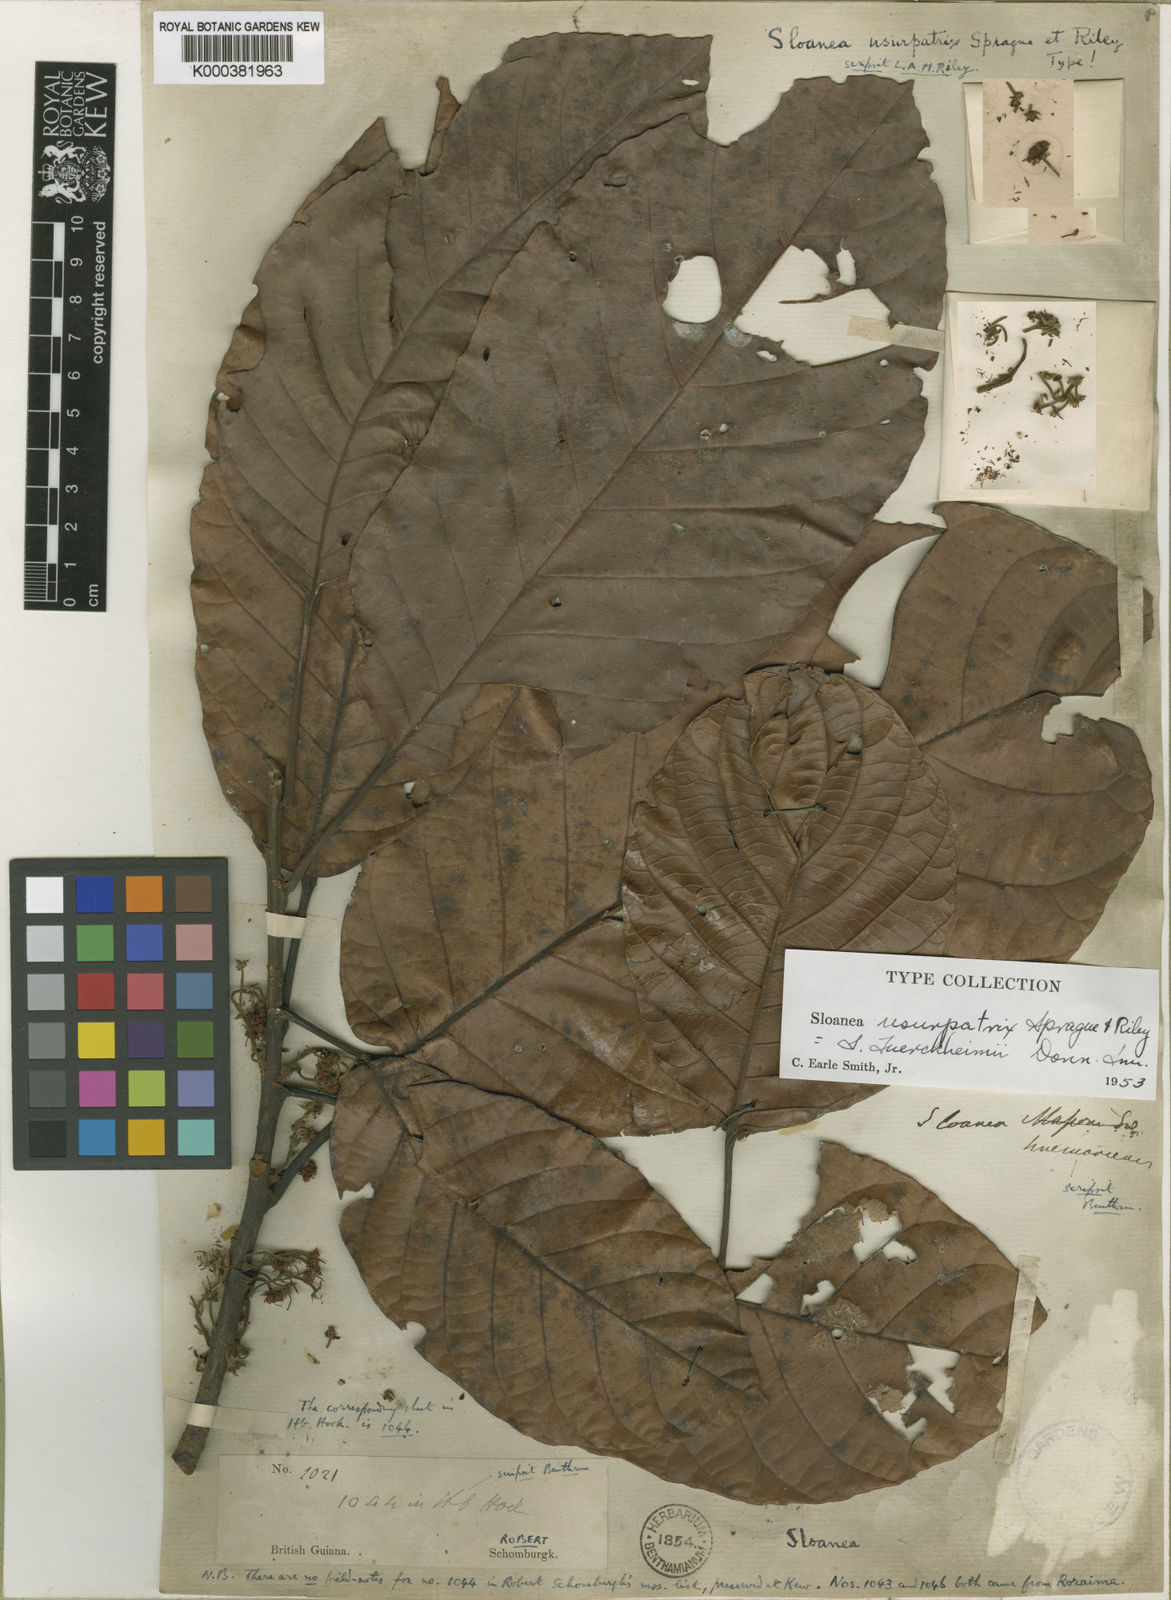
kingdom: Plantae
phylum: Tracheophyta
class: Magnoliopsida
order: Oxalidales
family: Elaeocarpaceae
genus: Sloanea
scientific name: Sloanea tuerckheimii
